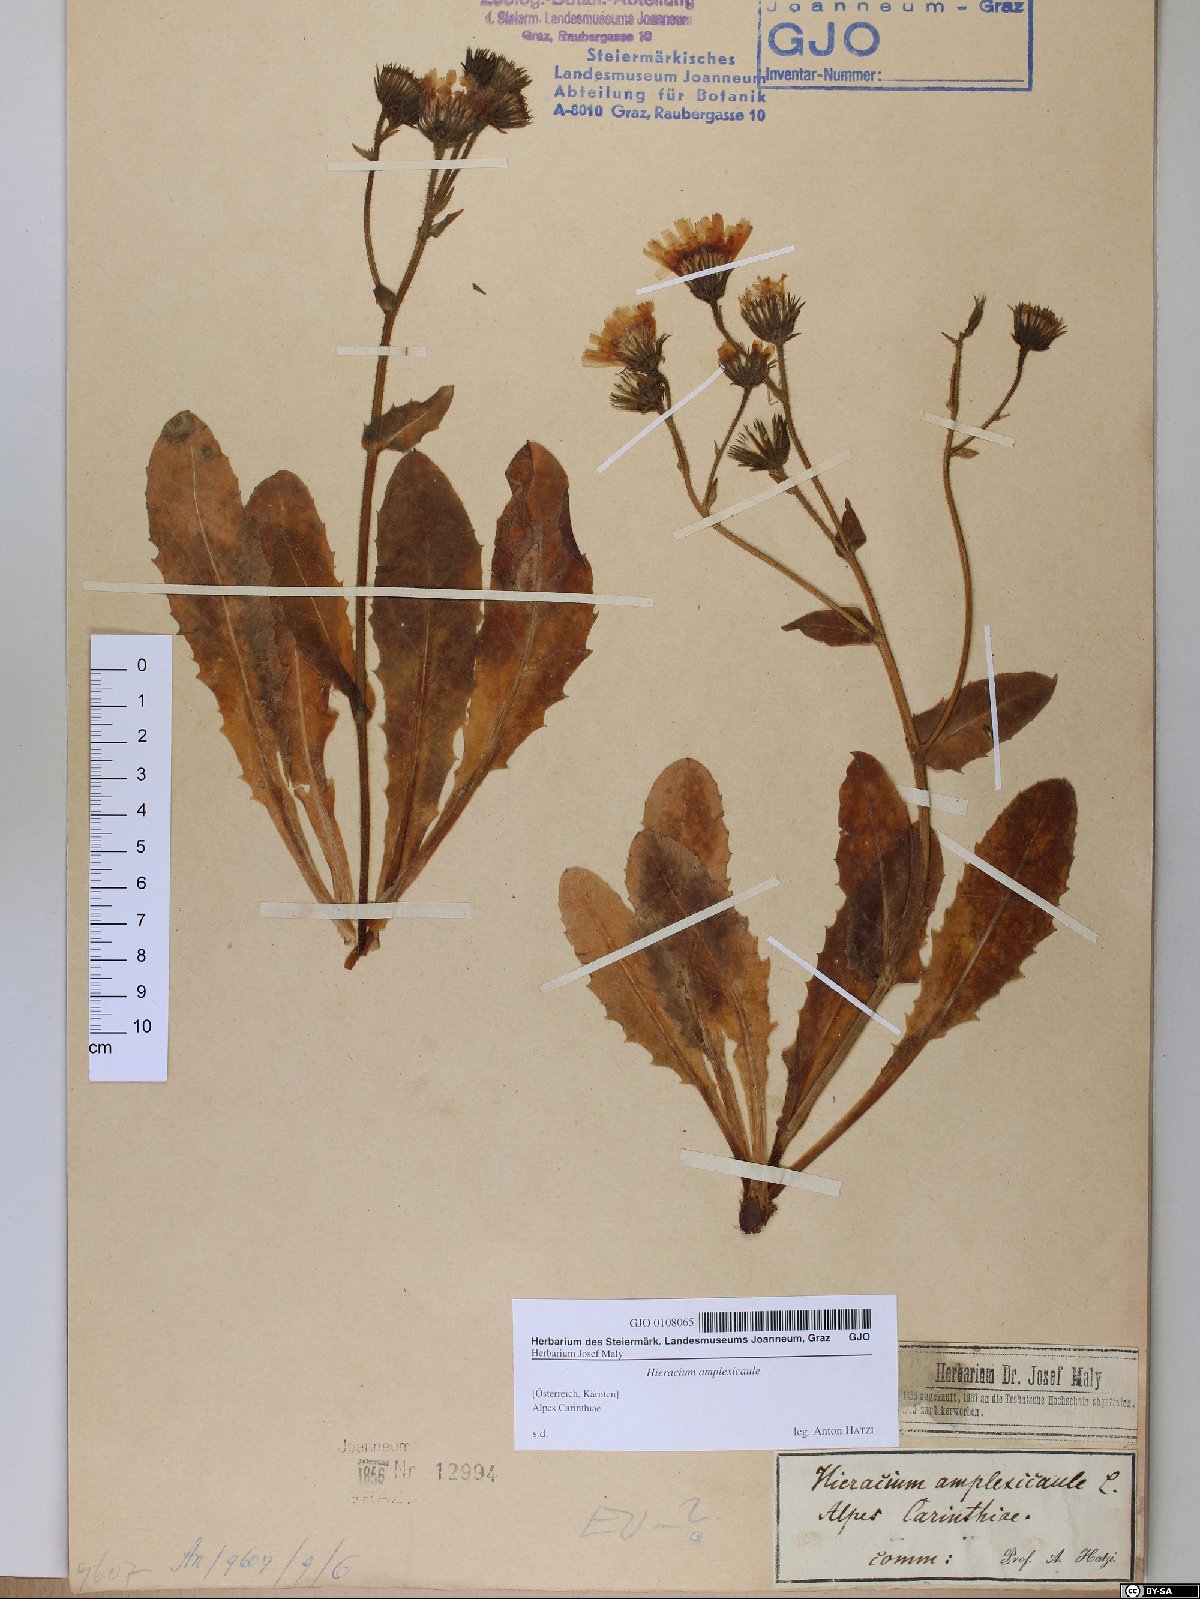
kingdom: Plantae
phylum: Tracheophyta
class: Magnoliopsida
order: Asterales
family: Asteraceae
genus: Hieracium
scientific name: Hieracium amplexicaule
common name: Sticky hawkweed
